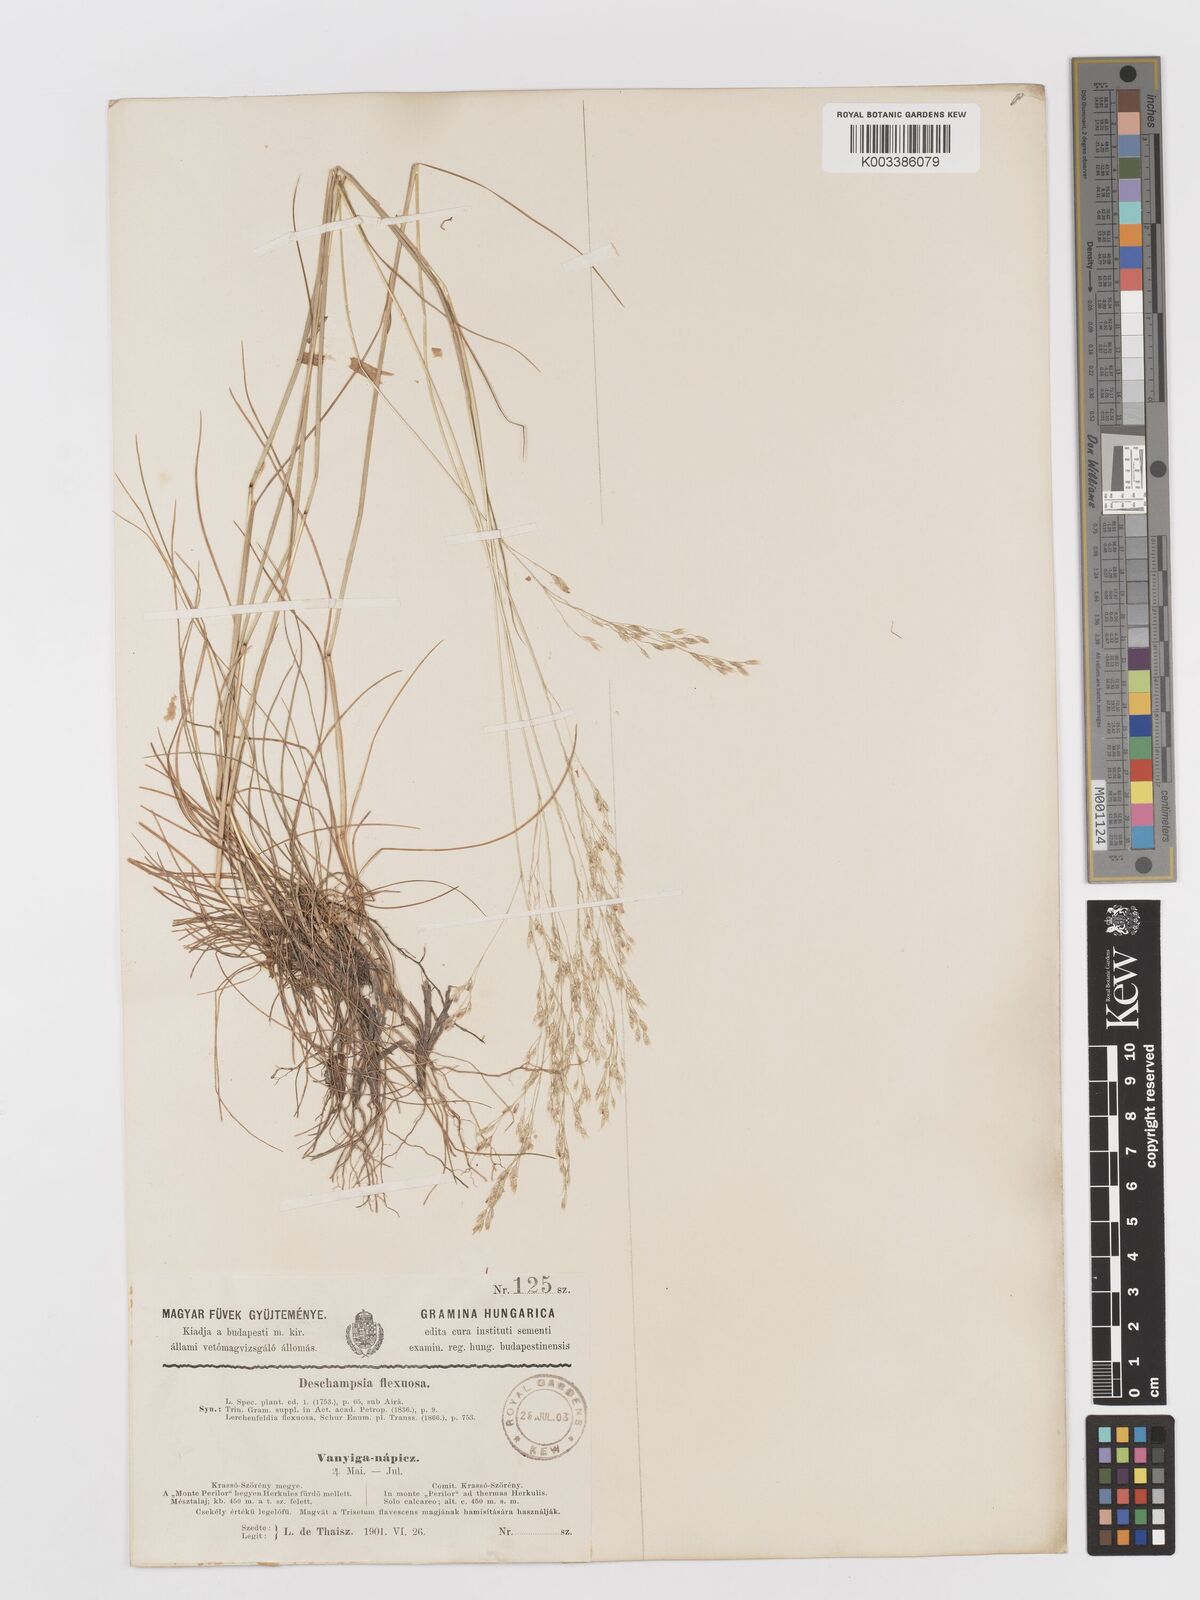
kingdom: Plantae
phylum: Tracheophyta
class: Liliopsida
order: Poales
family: Poaceae
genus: Avenella
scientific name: Avenella flexuosa
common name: Wavy hairgrass
